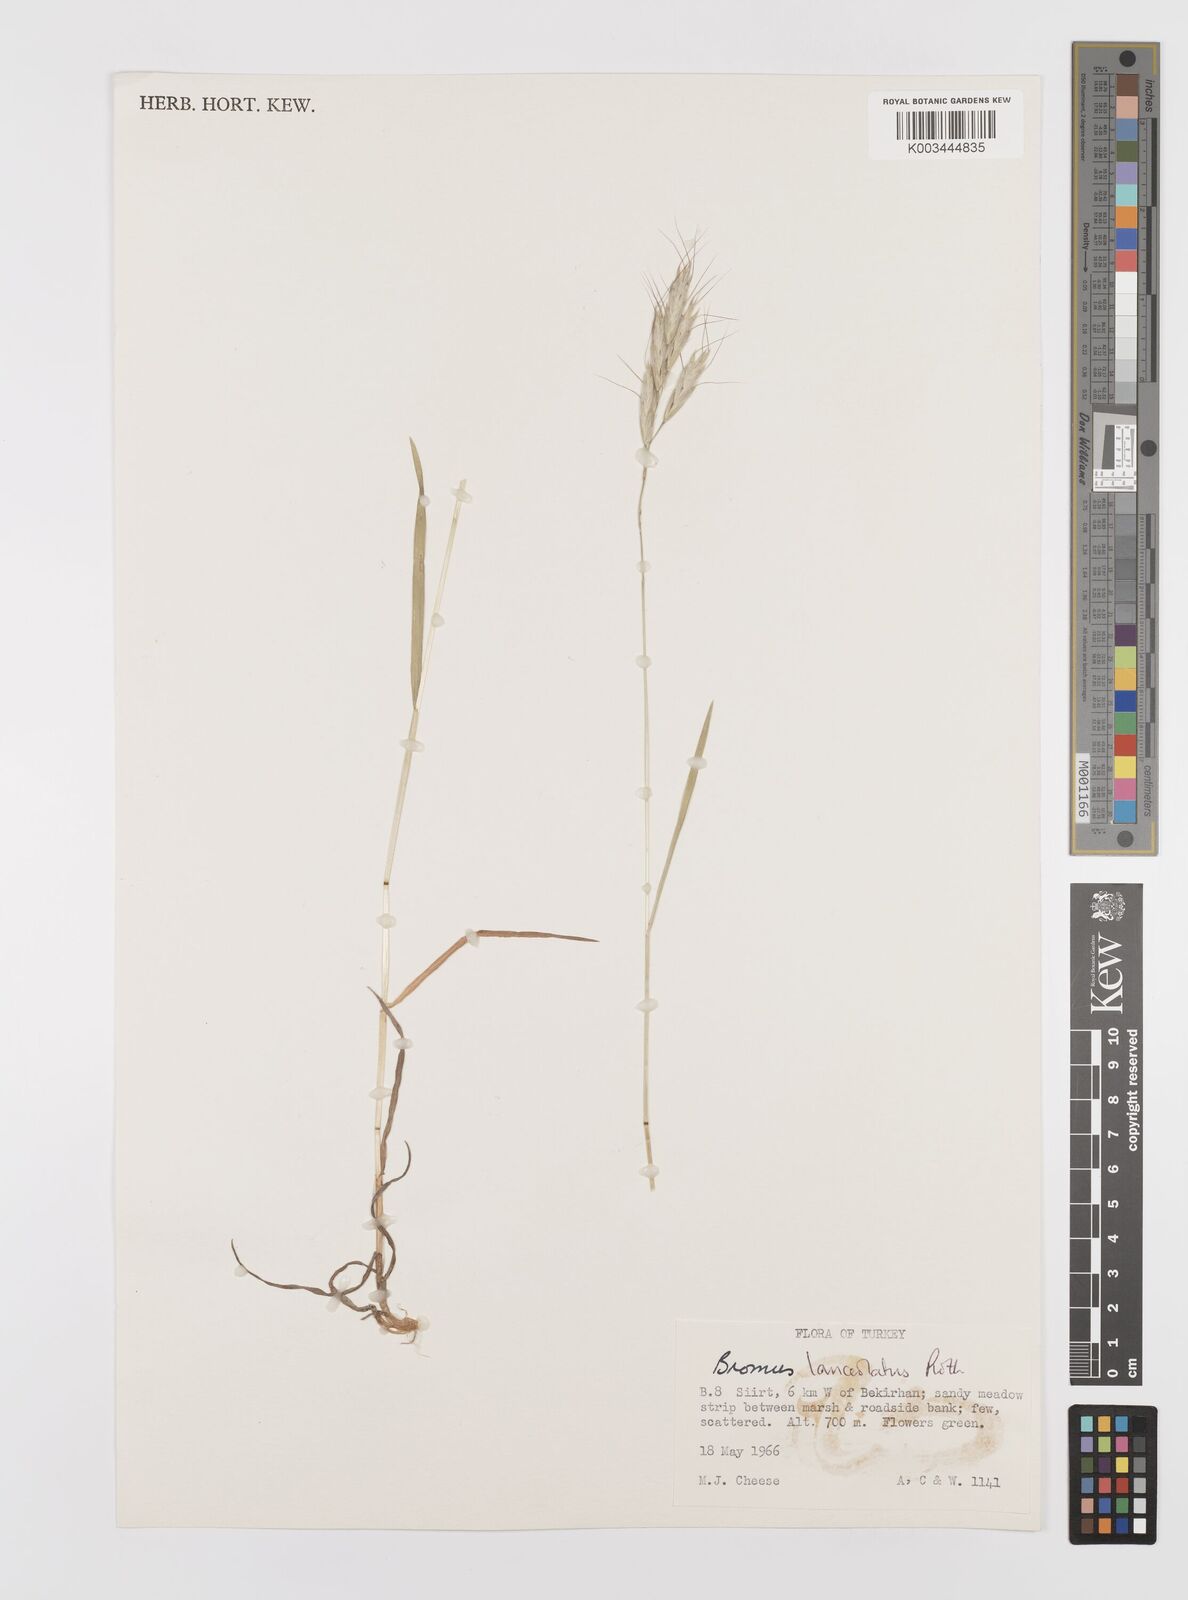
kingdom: Plantae
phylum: Tracheophyta
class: Liliopsida
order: Poales
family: Poaceae
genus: Bromus
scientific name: Bromus lanceolatus
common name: Mediterranean brome
